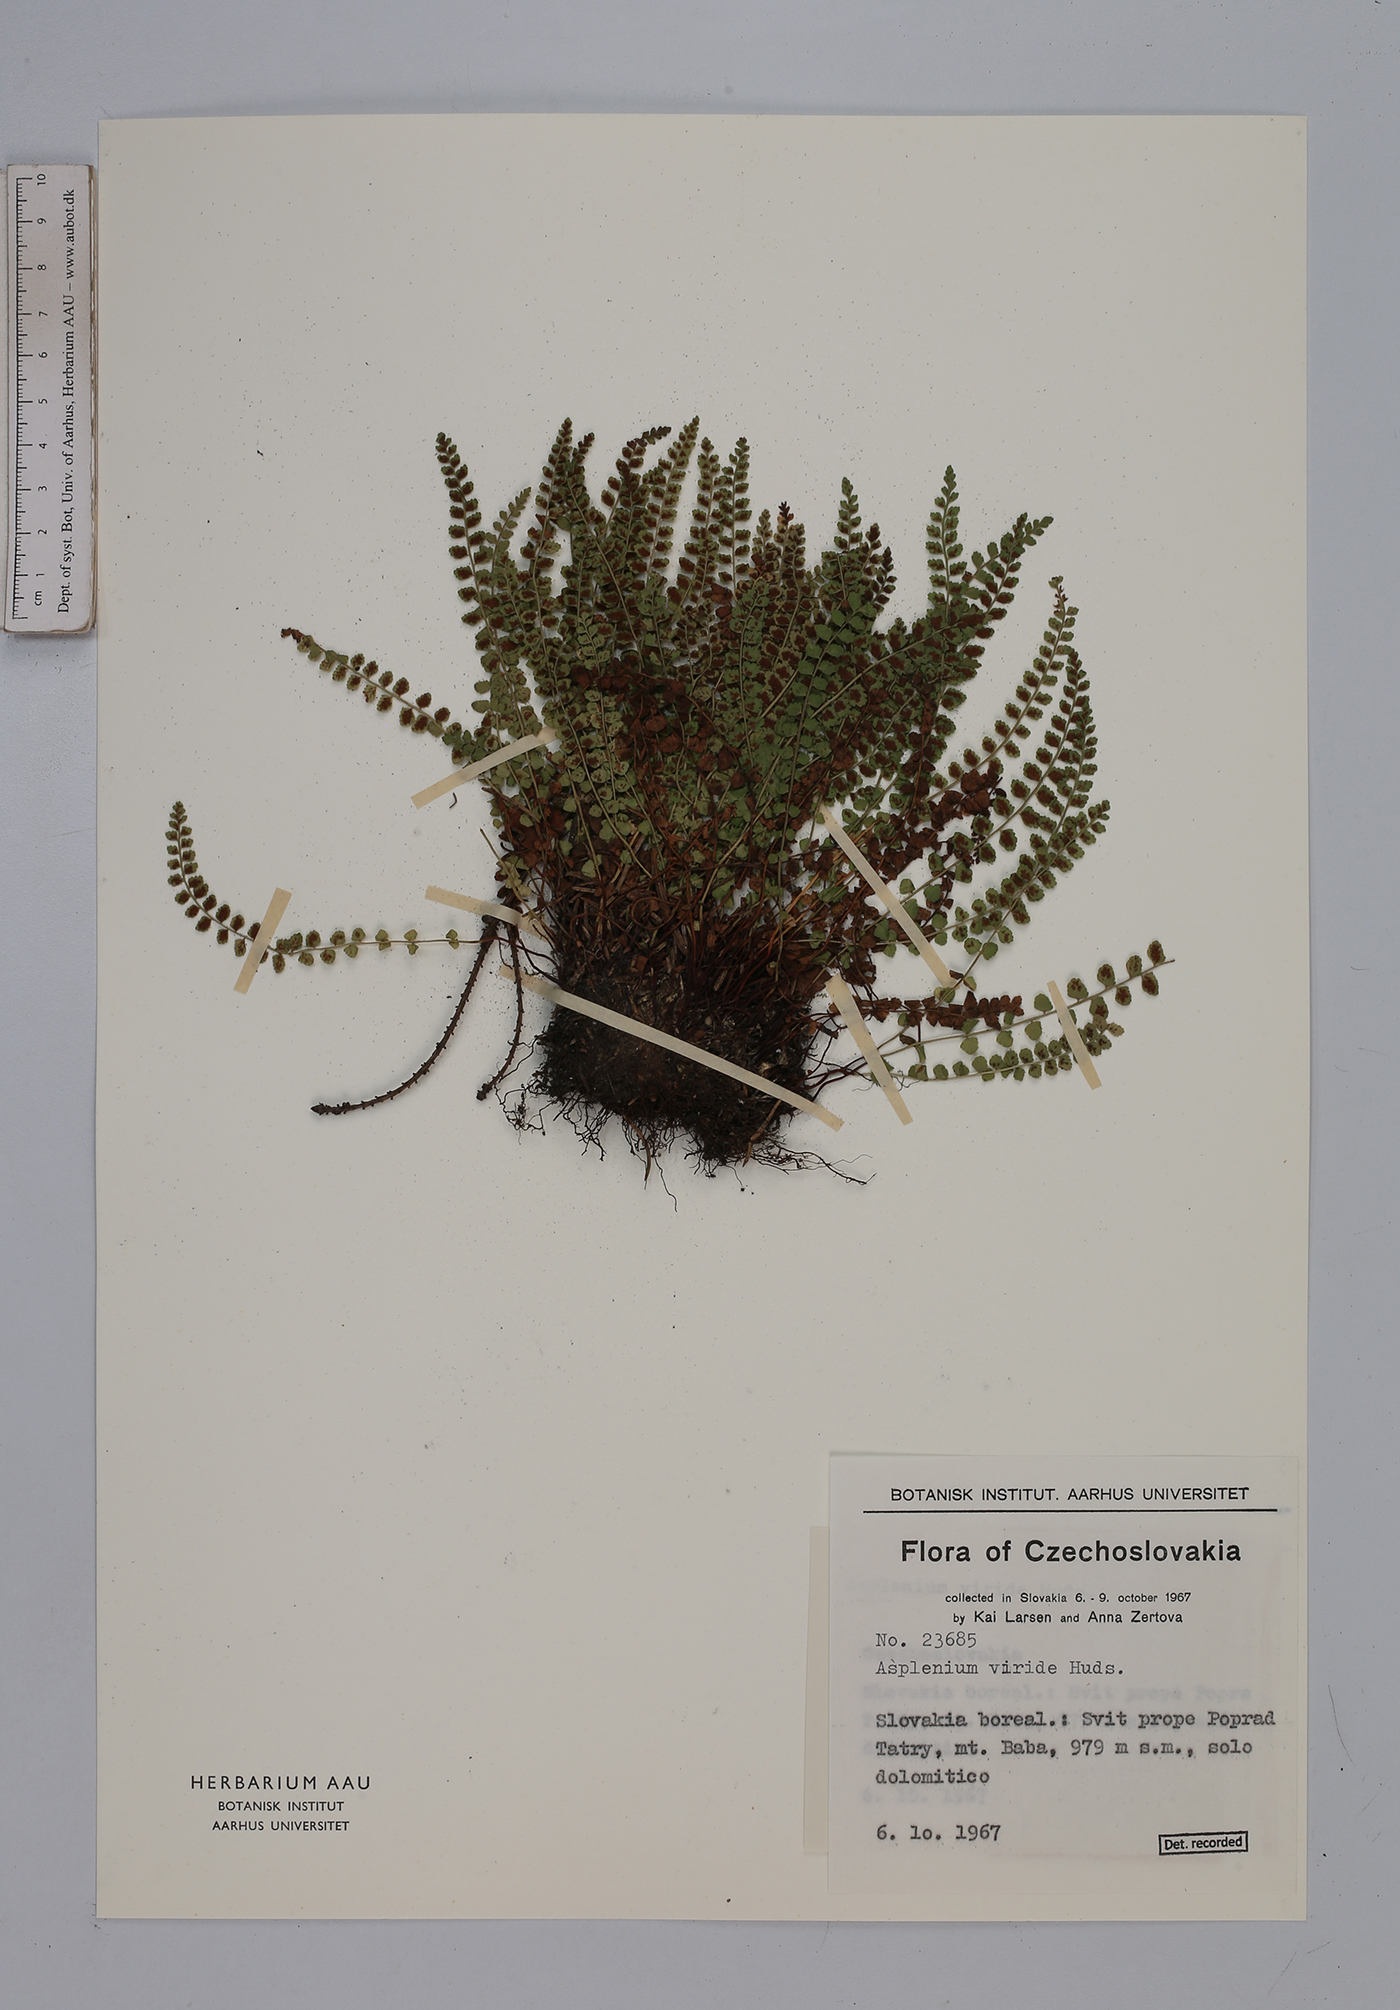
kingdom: Plantae
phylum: Tracheophyta
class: Polypodiopsida
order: Polypodiales
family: Aspleniaceae
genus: Asplenium
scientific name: Asplenium viride
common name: Green spleenwort
